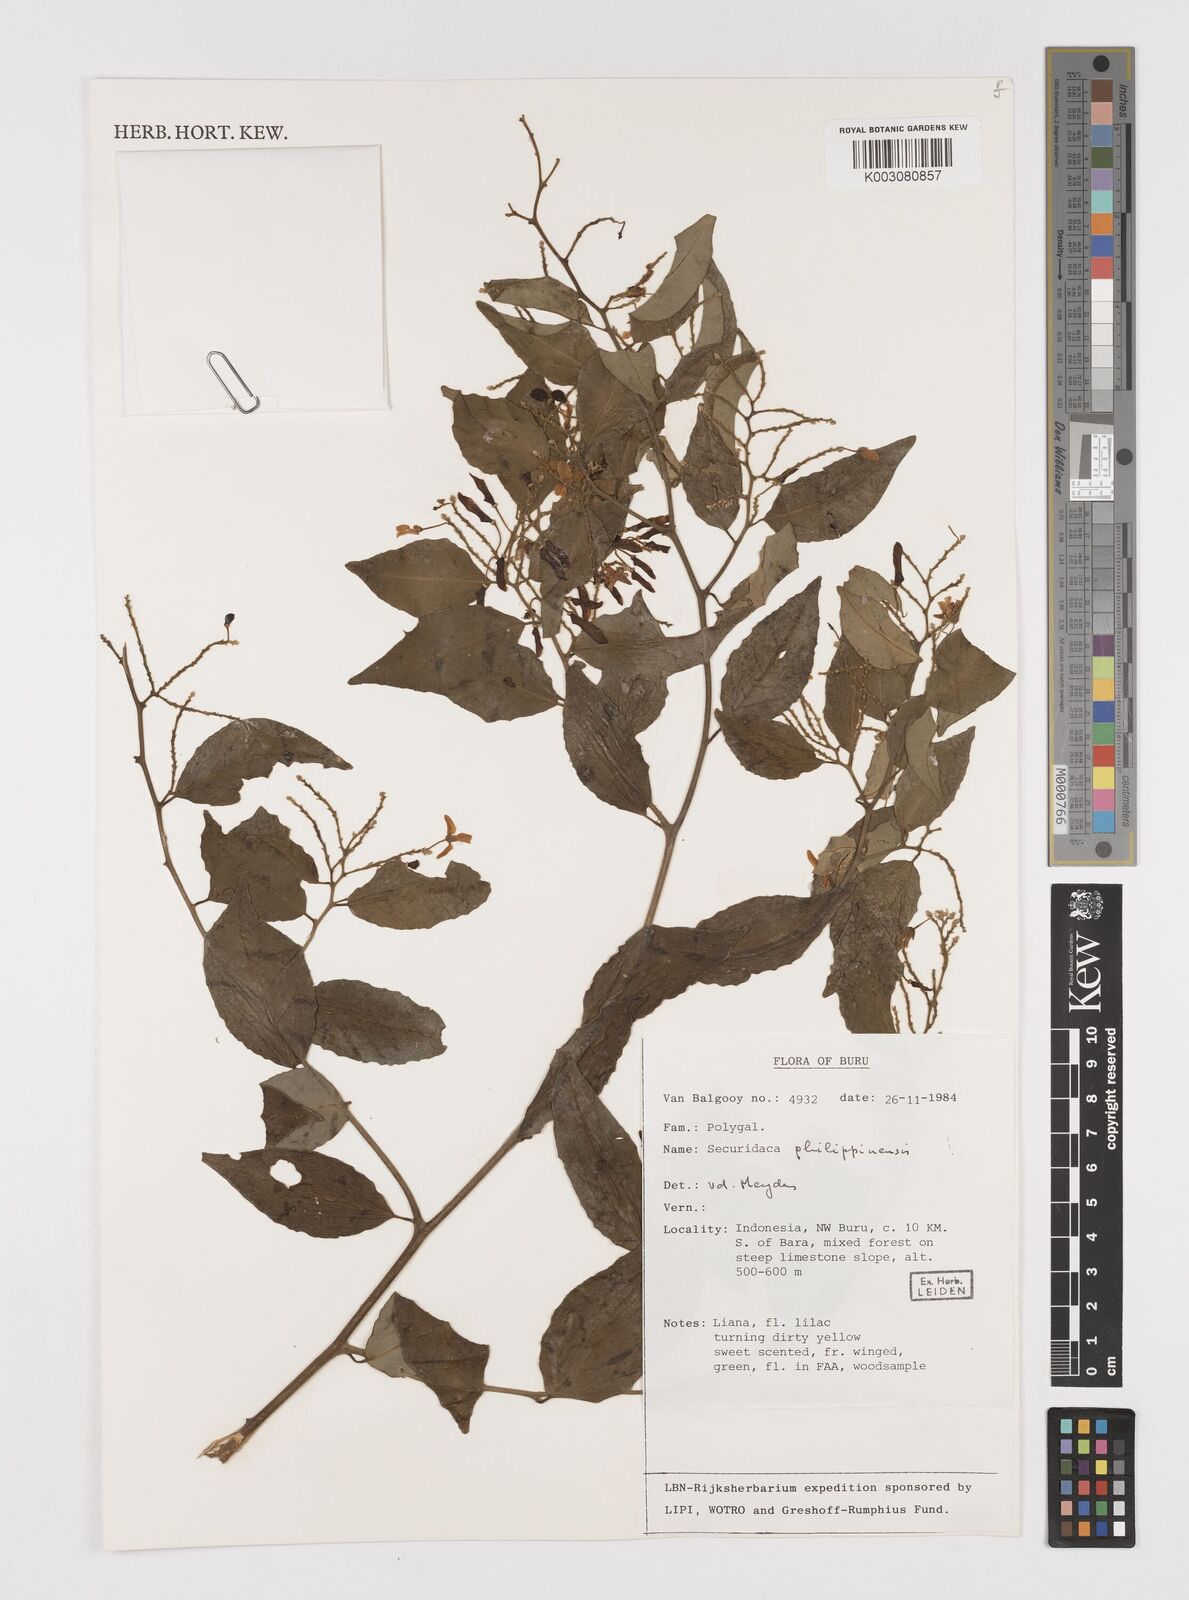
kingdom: Plantae
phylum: Tracheophyta
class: Magnoliopsida
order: Fabales
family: Polygalaceae
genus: Securidaca
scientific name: Securidaca philippinensis
